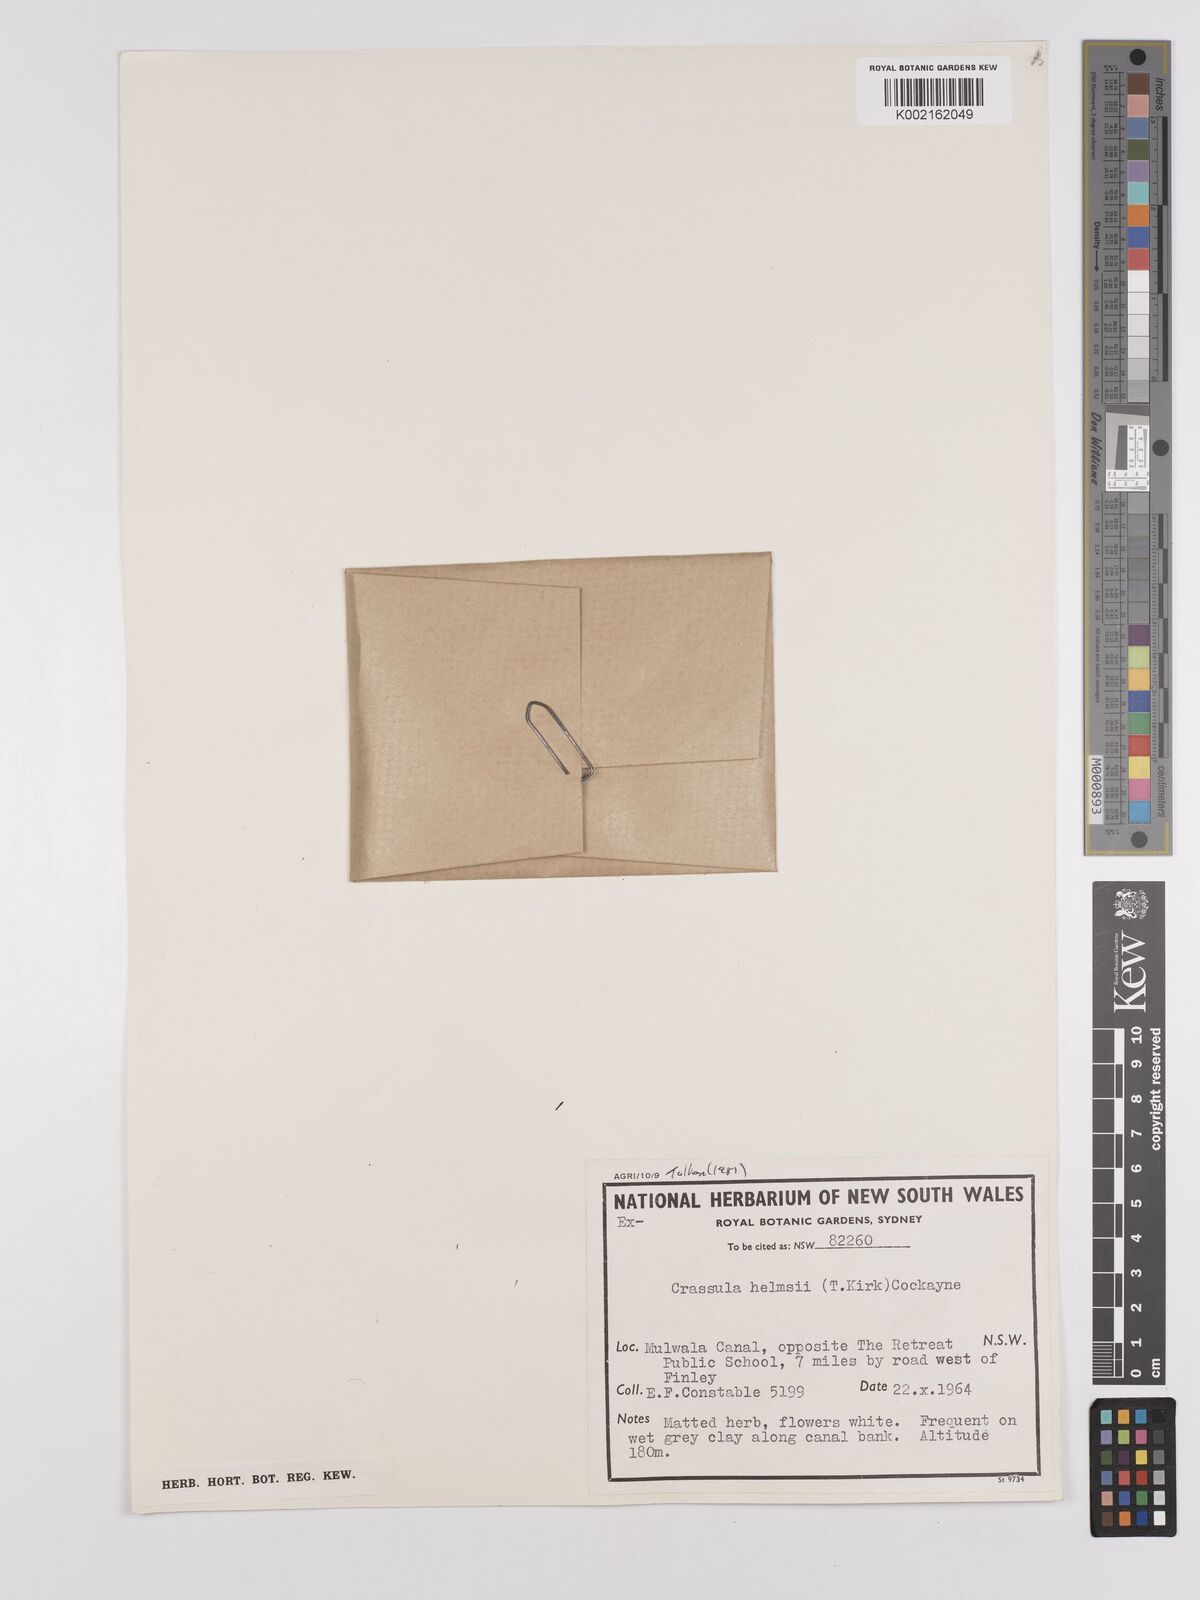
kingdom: Plantae
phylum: Tracheophyta
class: Magnoliopsida
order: Saxifragales
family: Crassulaceae
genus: Crassula
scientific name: Crassula helmsii
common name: New zealand pigmyweed
